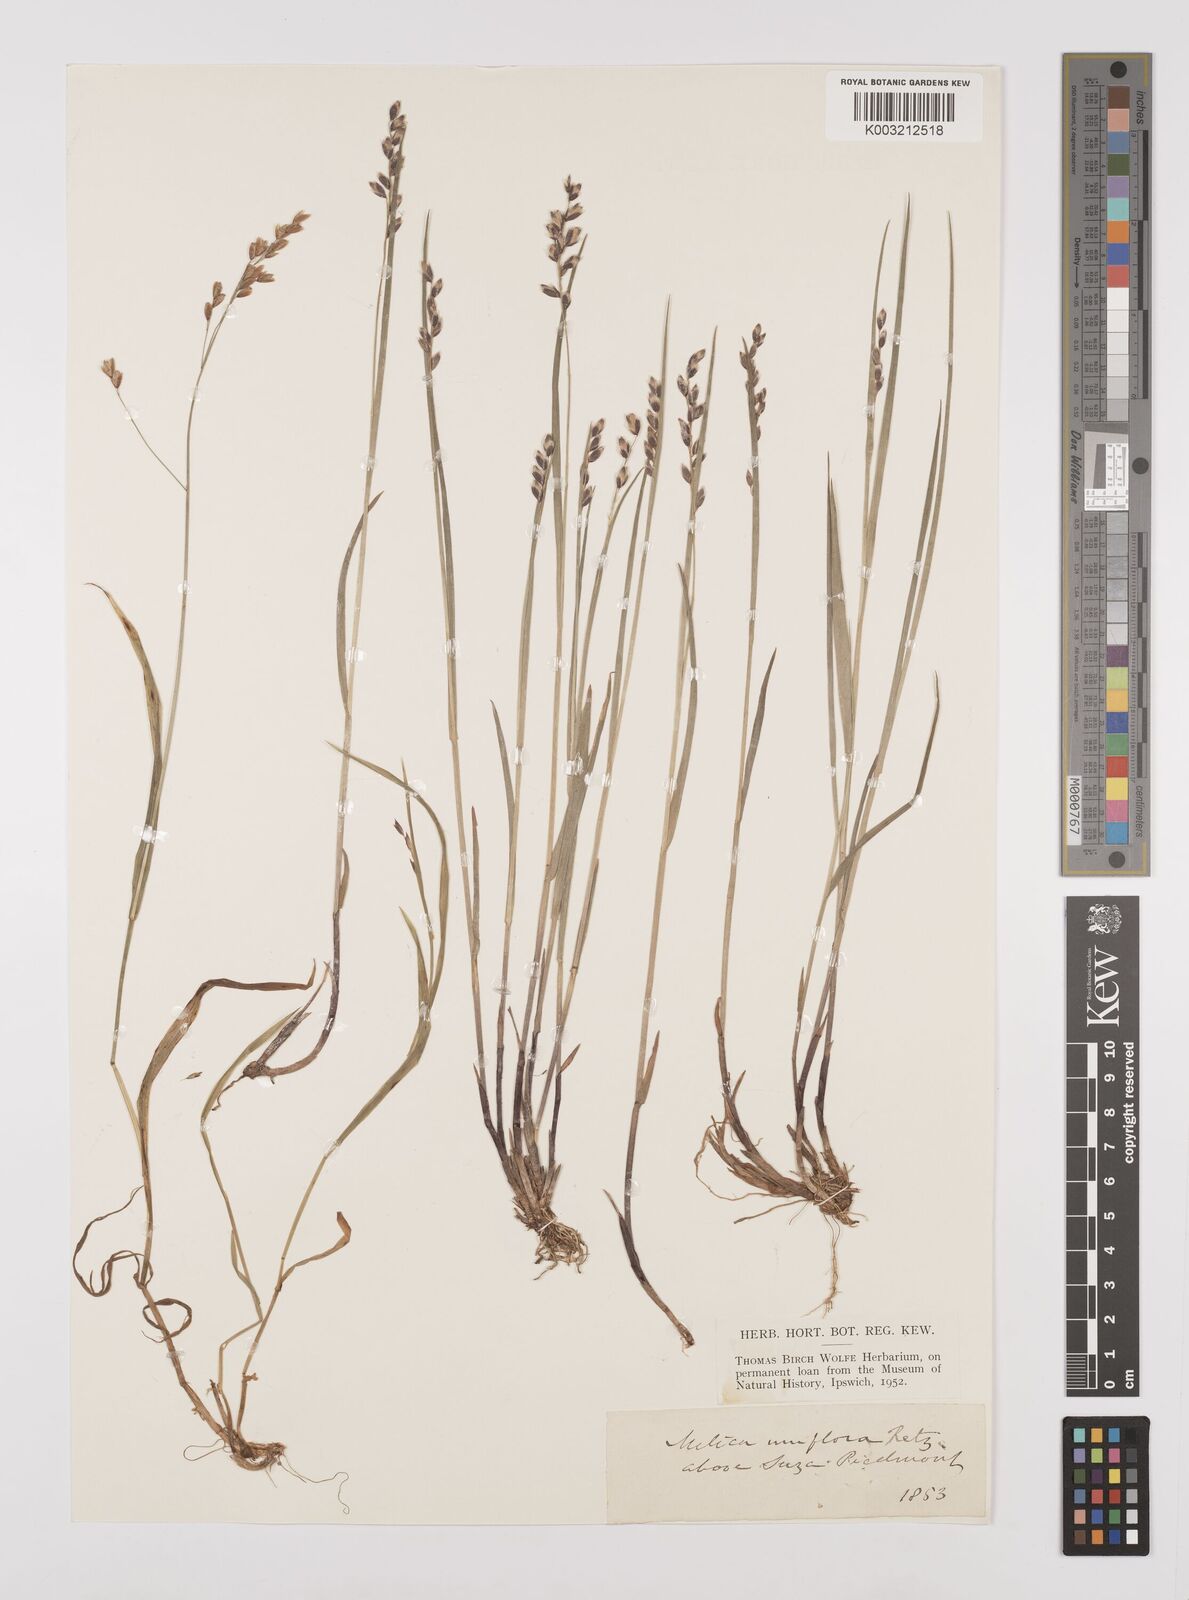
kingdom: Plantae
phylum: Tracheophyta
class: Liliopsida
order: Poales
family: Poaceae
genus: Melica
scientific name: Melica uniflora
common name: Wood melick
